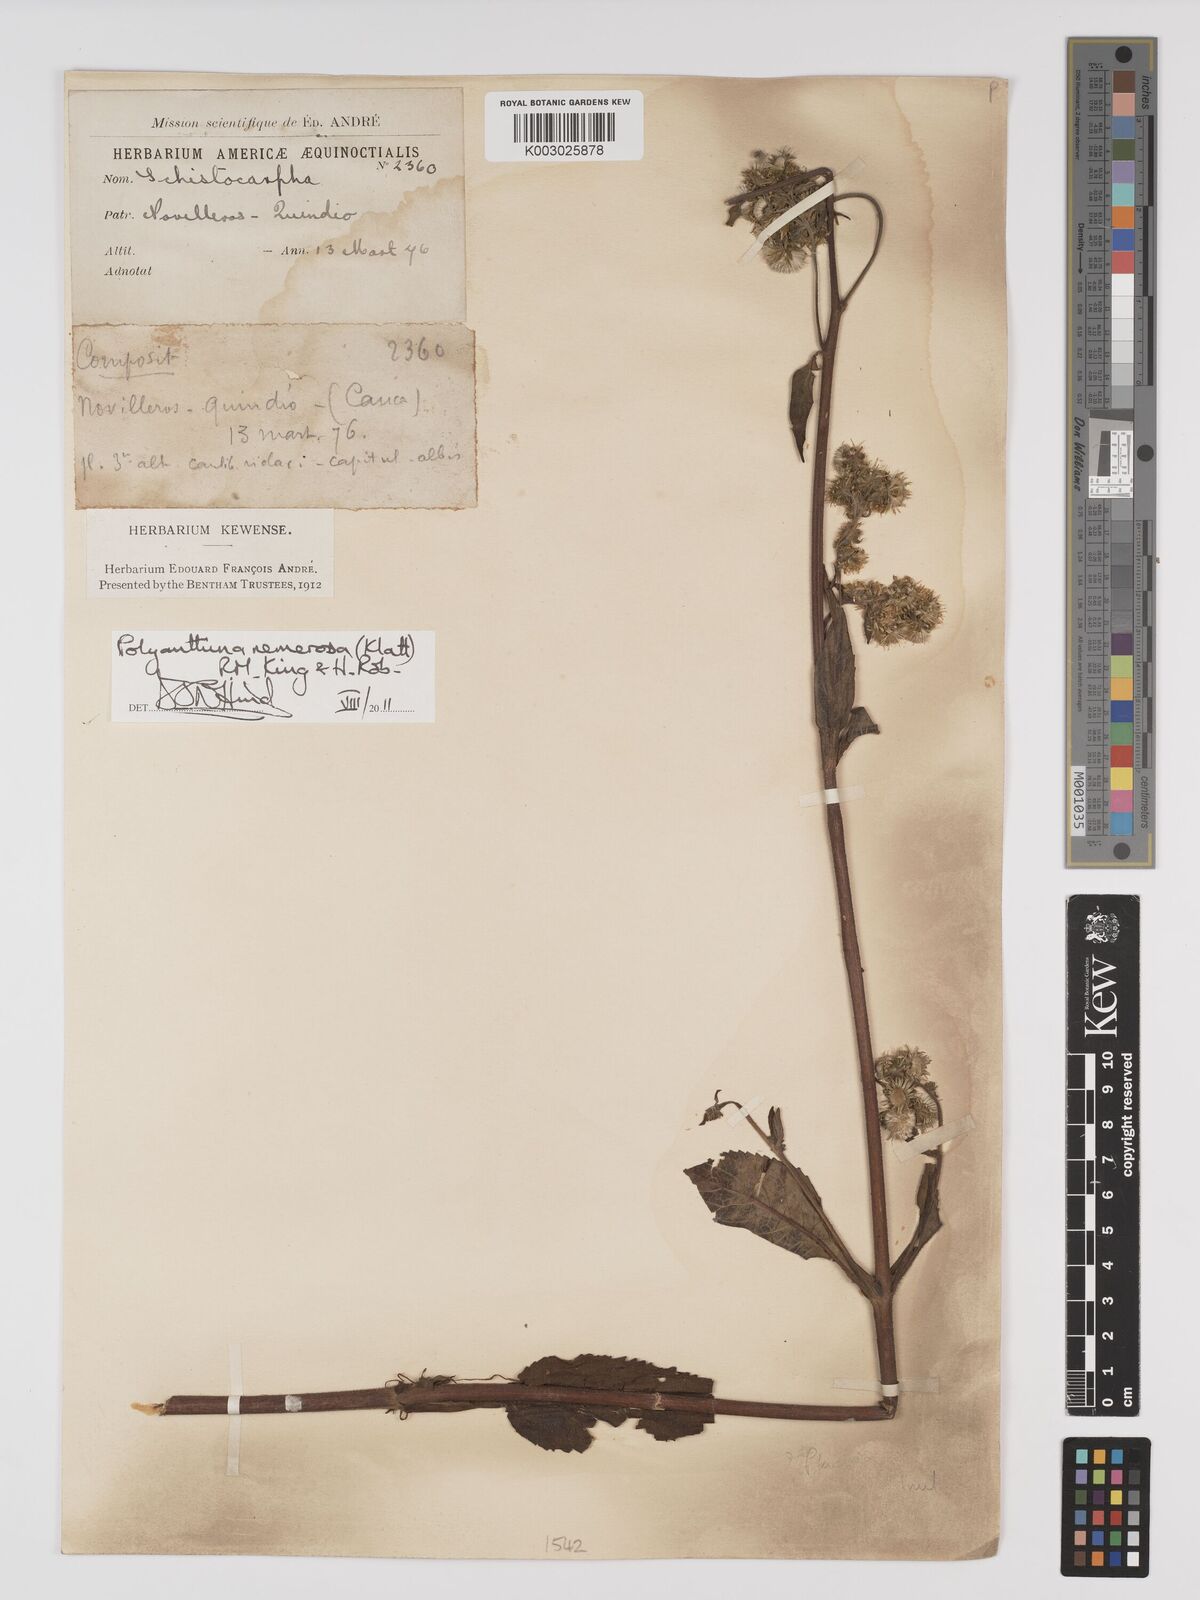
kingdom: Plantae
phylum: Tracheophyta
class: Magnoliopsida
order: Asterales
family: Asteraceae
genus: Polyanthina
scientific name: Polyanthina nemorosa
